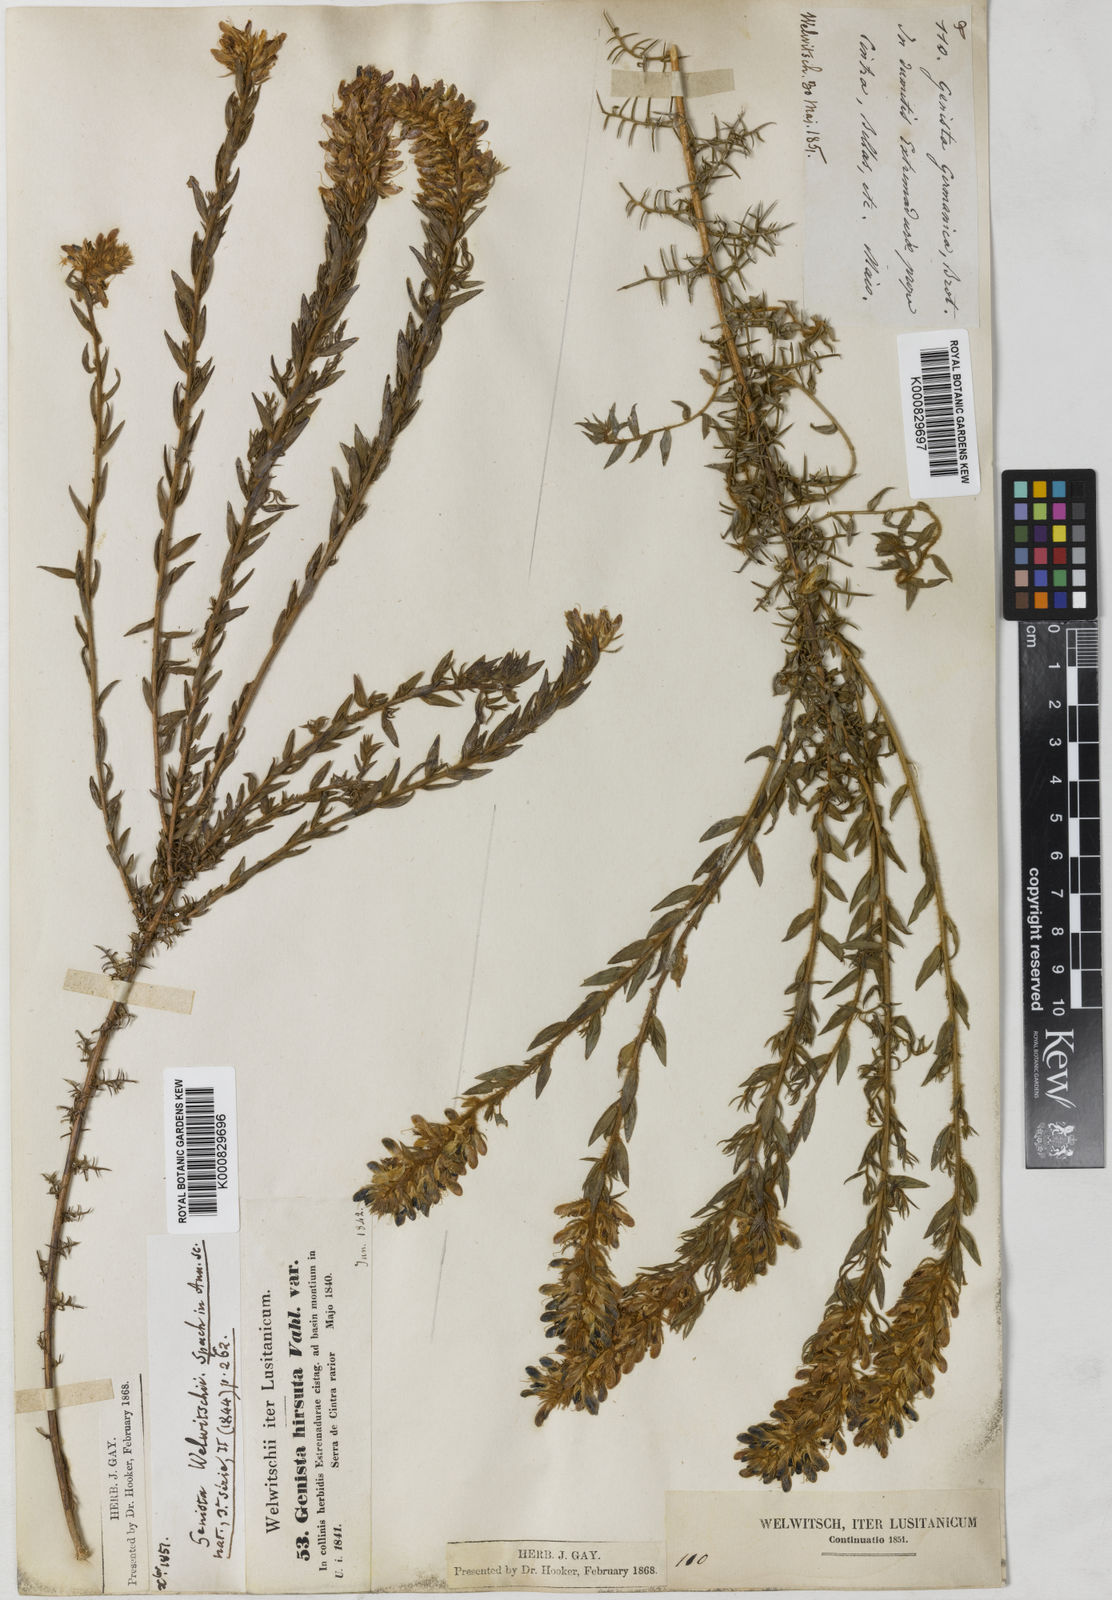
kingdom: Plantae
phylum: Tracheophyta
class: Magnoliopsida
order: Fabales
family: Fabaceae
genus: Genista
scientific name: Genista tournefortii
